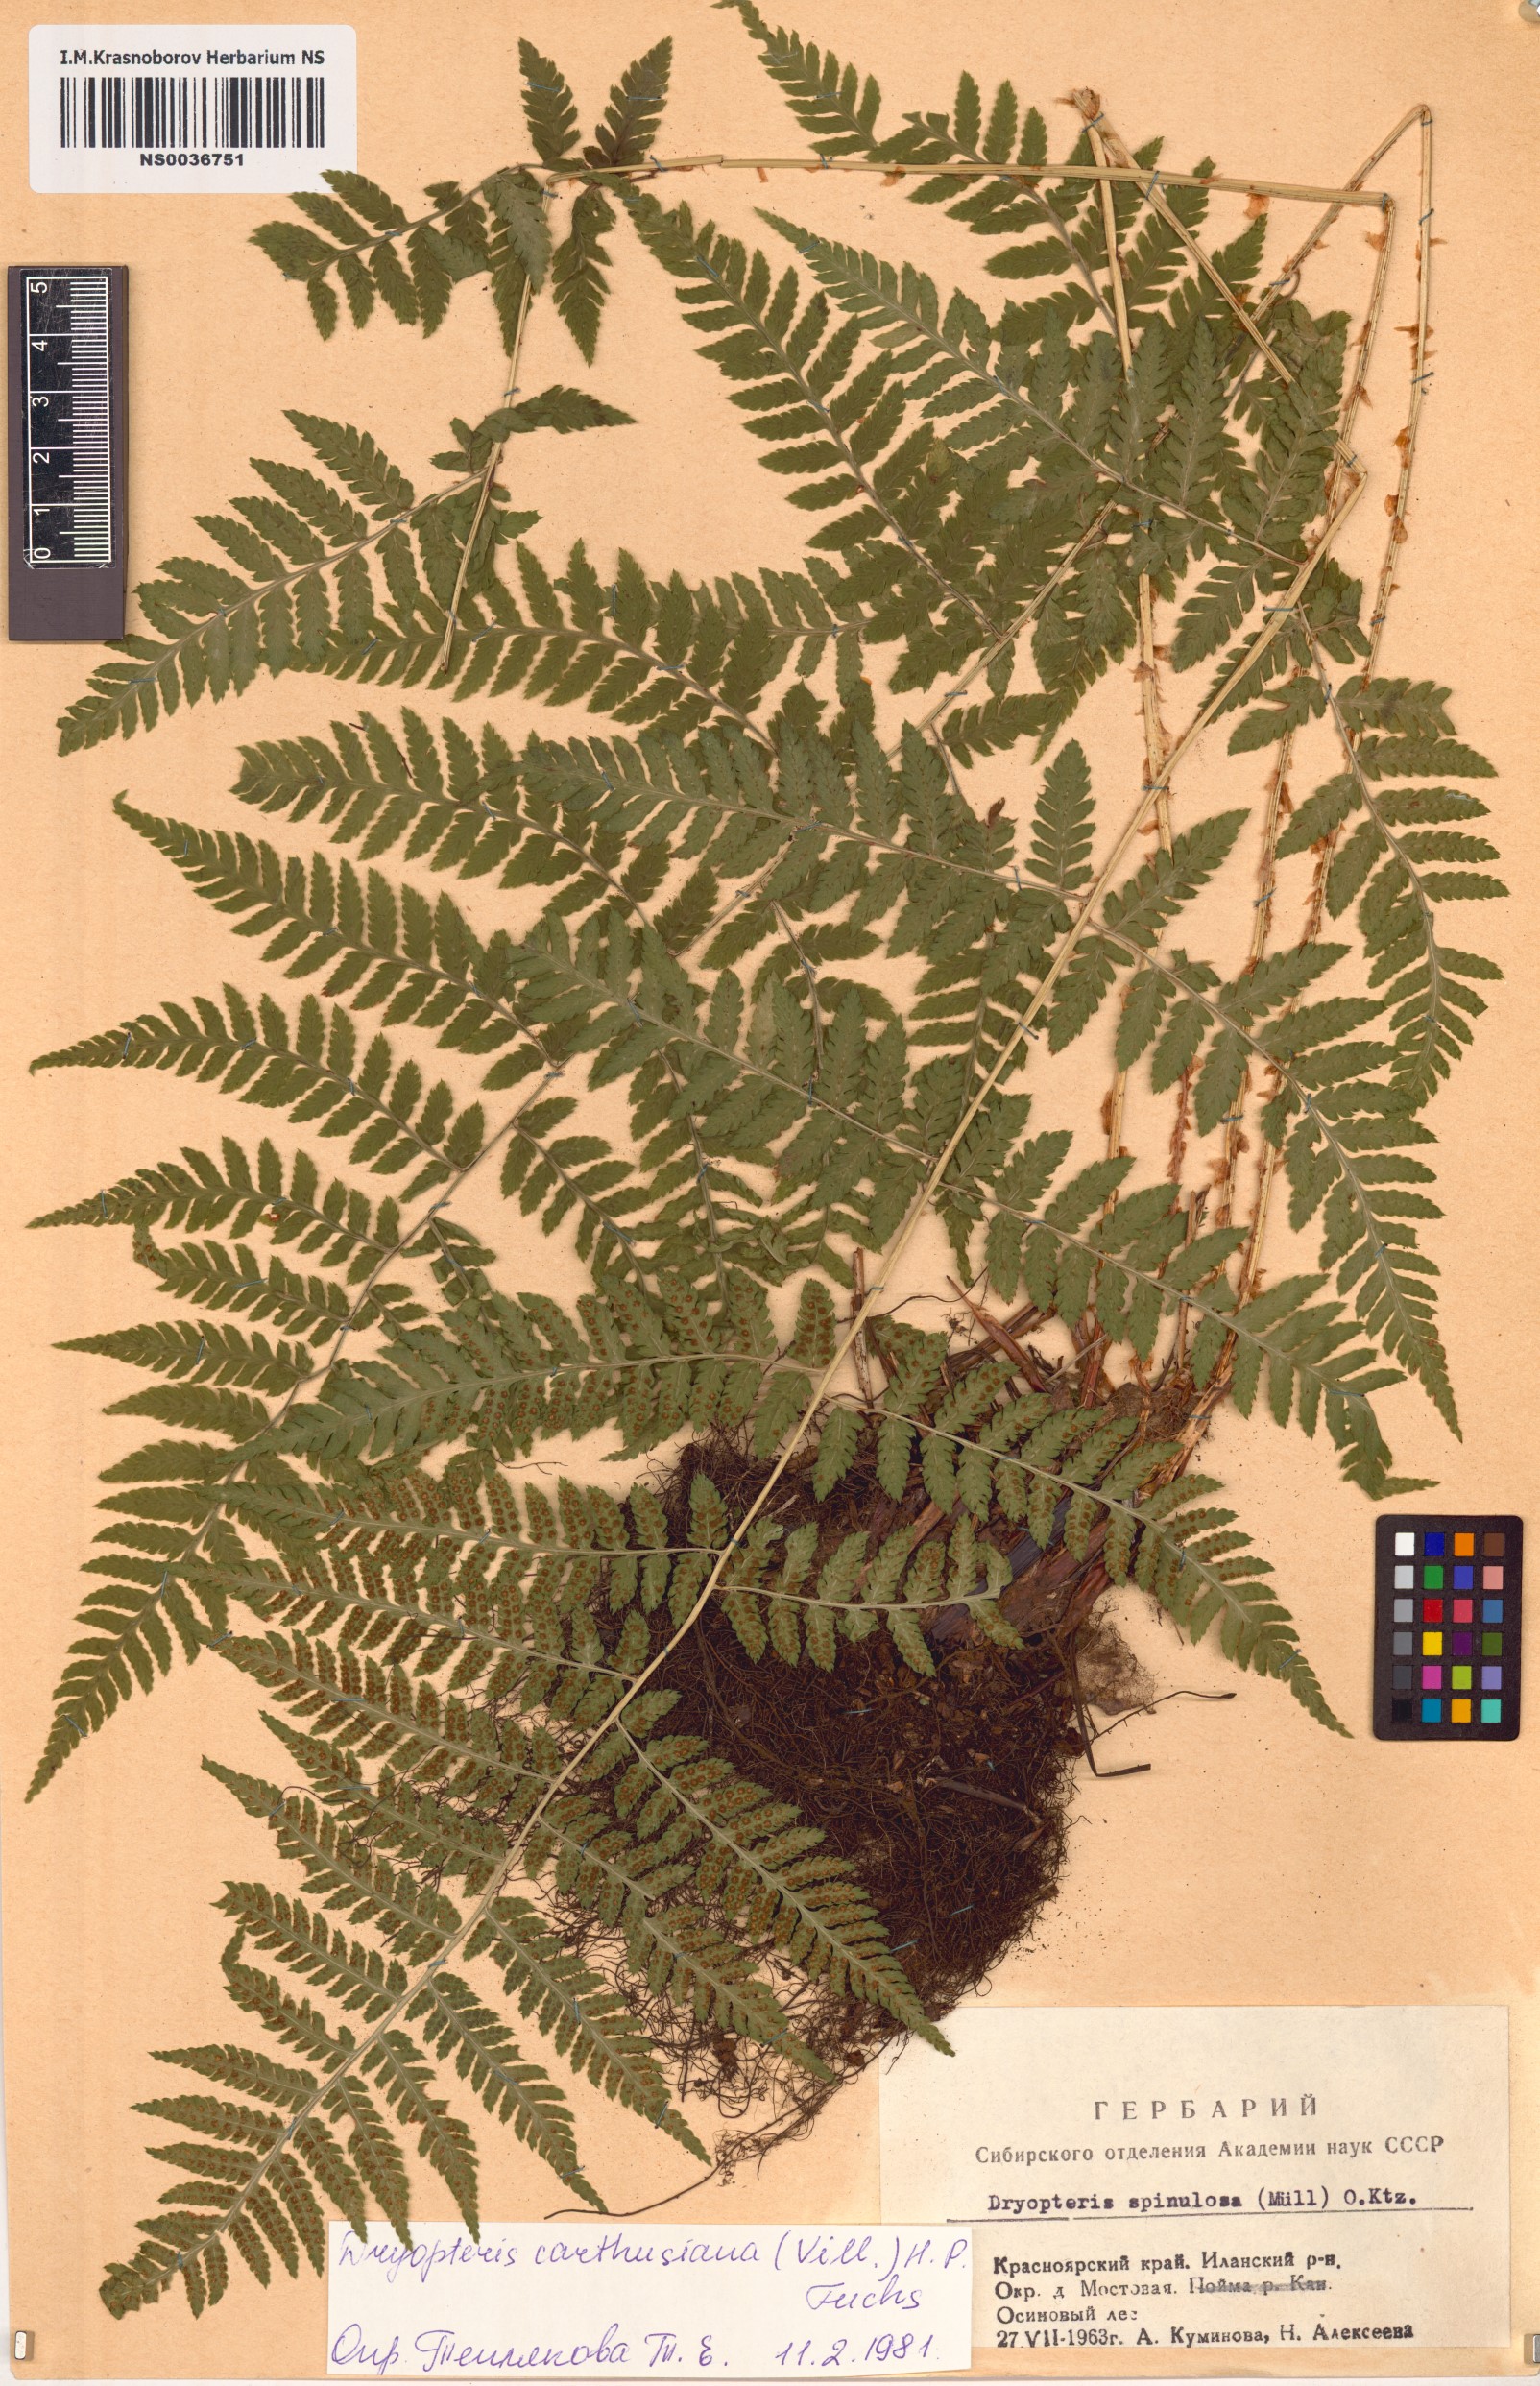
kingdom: Plantae
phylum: Tracheophyta
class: Polypodiopsida
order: Polypodiales
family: Dryopteridaceae
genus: Dryopteris
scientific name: Dryopteris carthusiana
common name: Narrow buckler-fern
